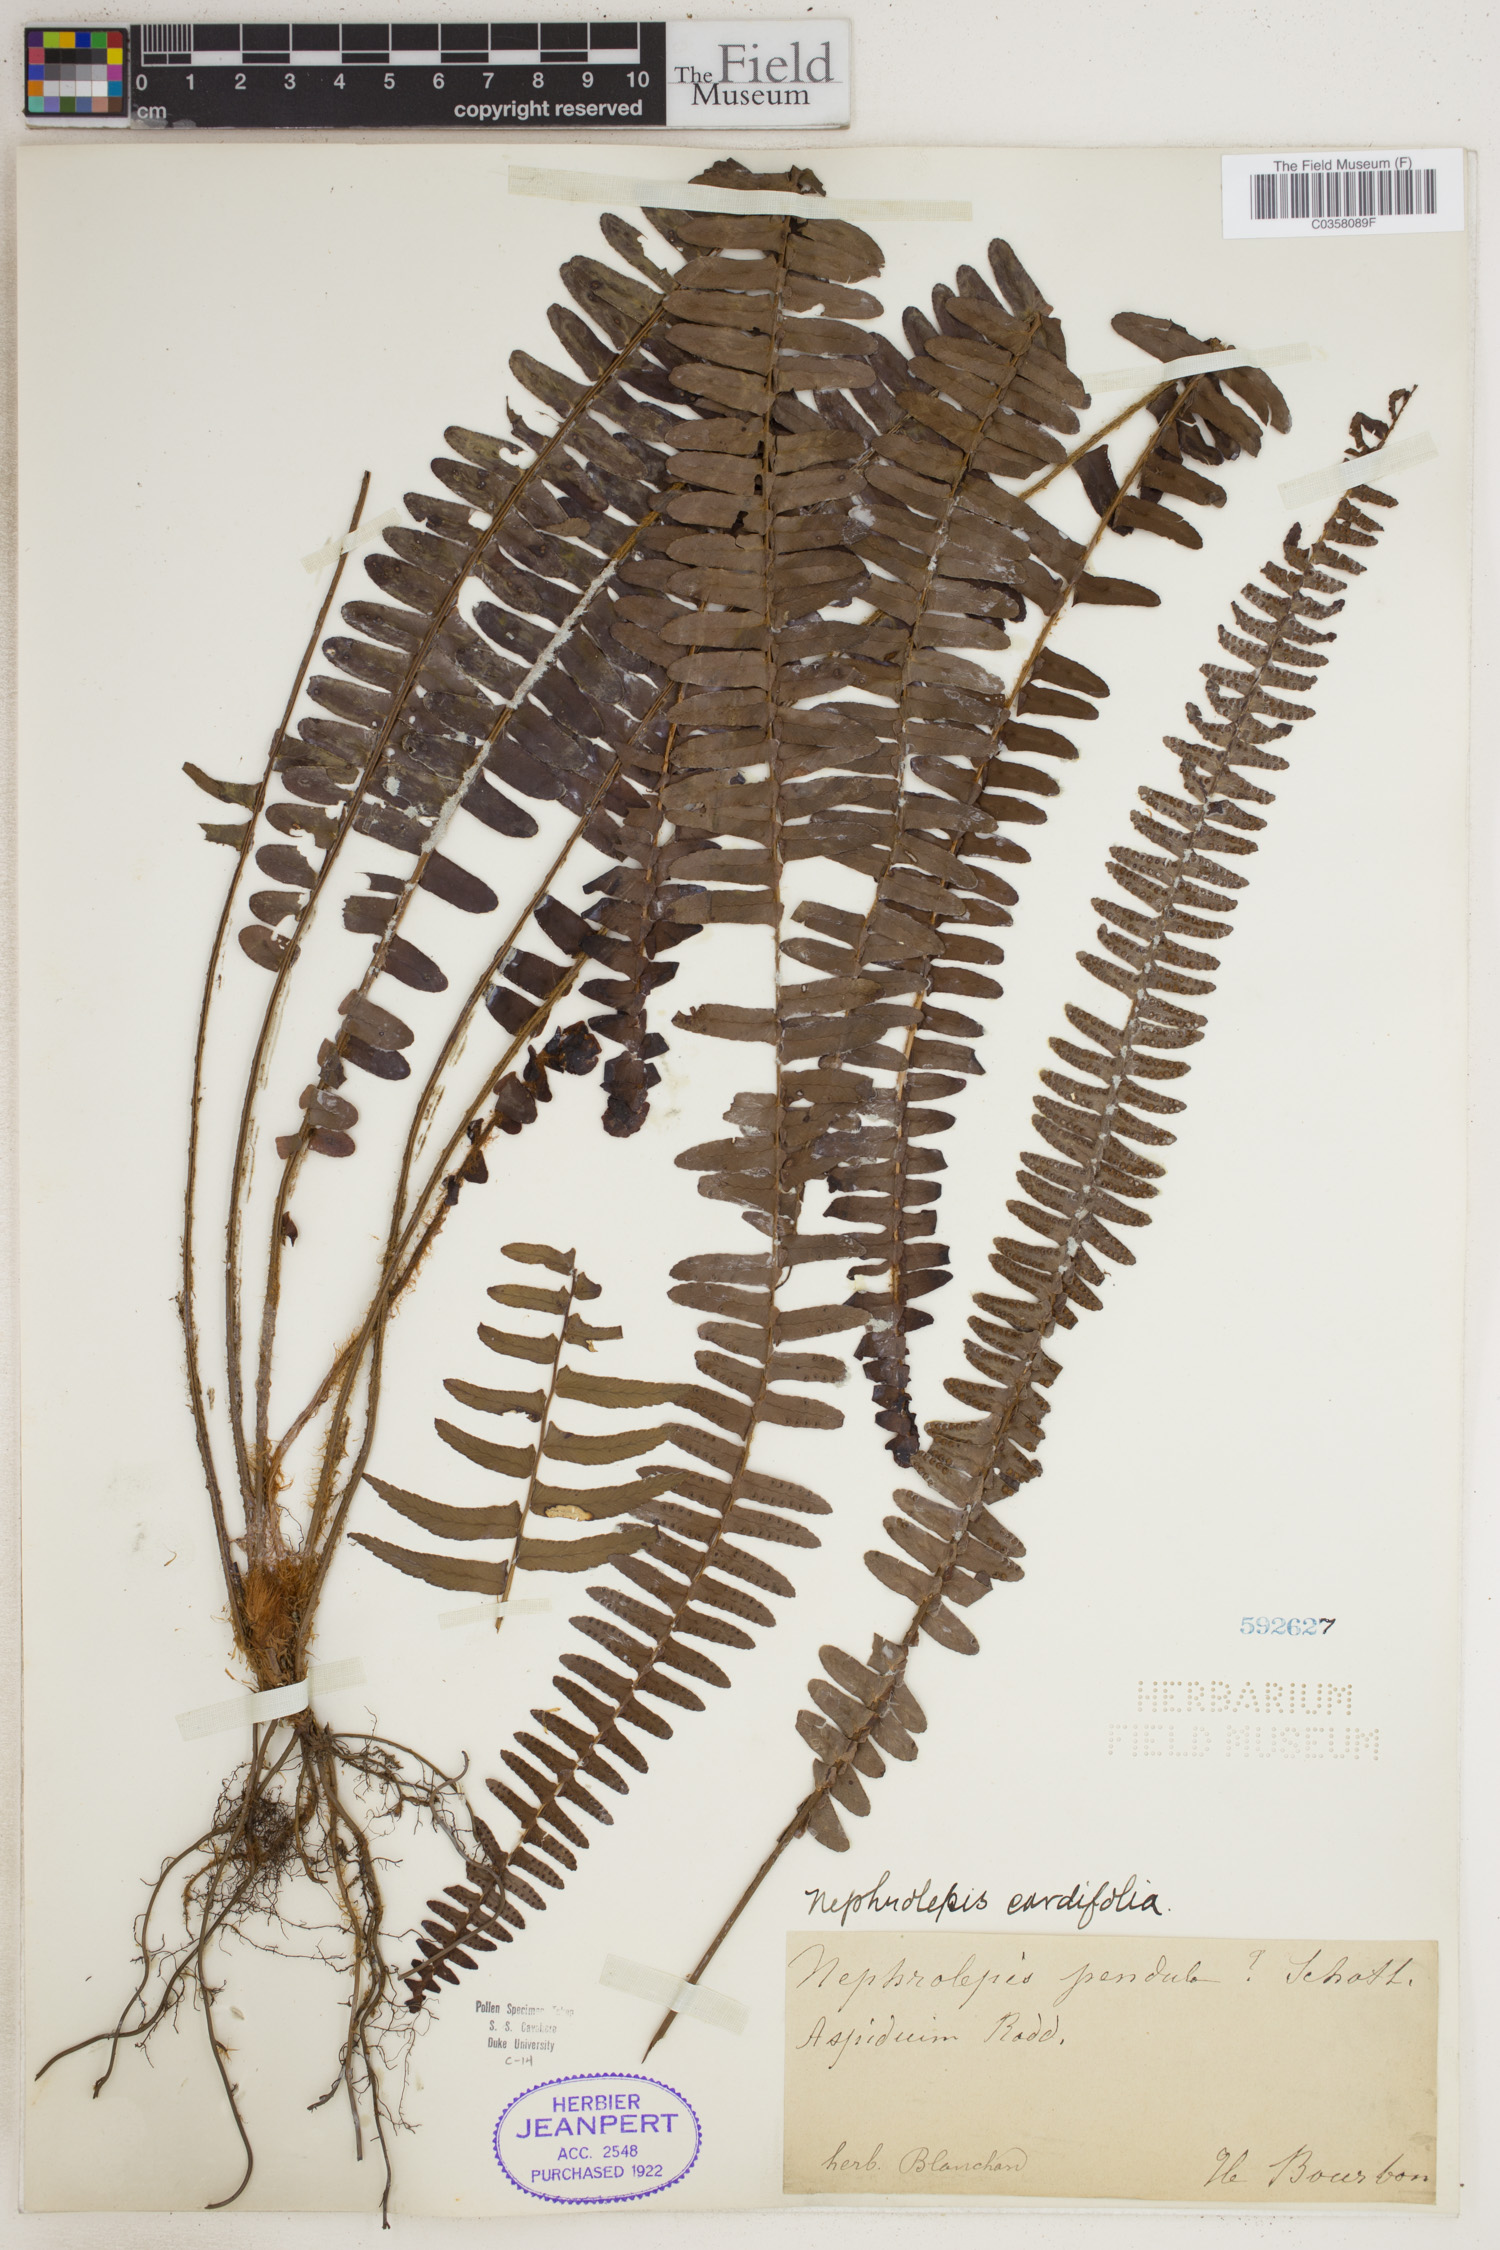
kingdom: Plantae
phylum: Tracheophyta
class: Polypodiopsida
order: Polypodiales
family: Nephrolepidaceae
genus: Nephrolepis
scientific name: Nephrolepis biserrata
